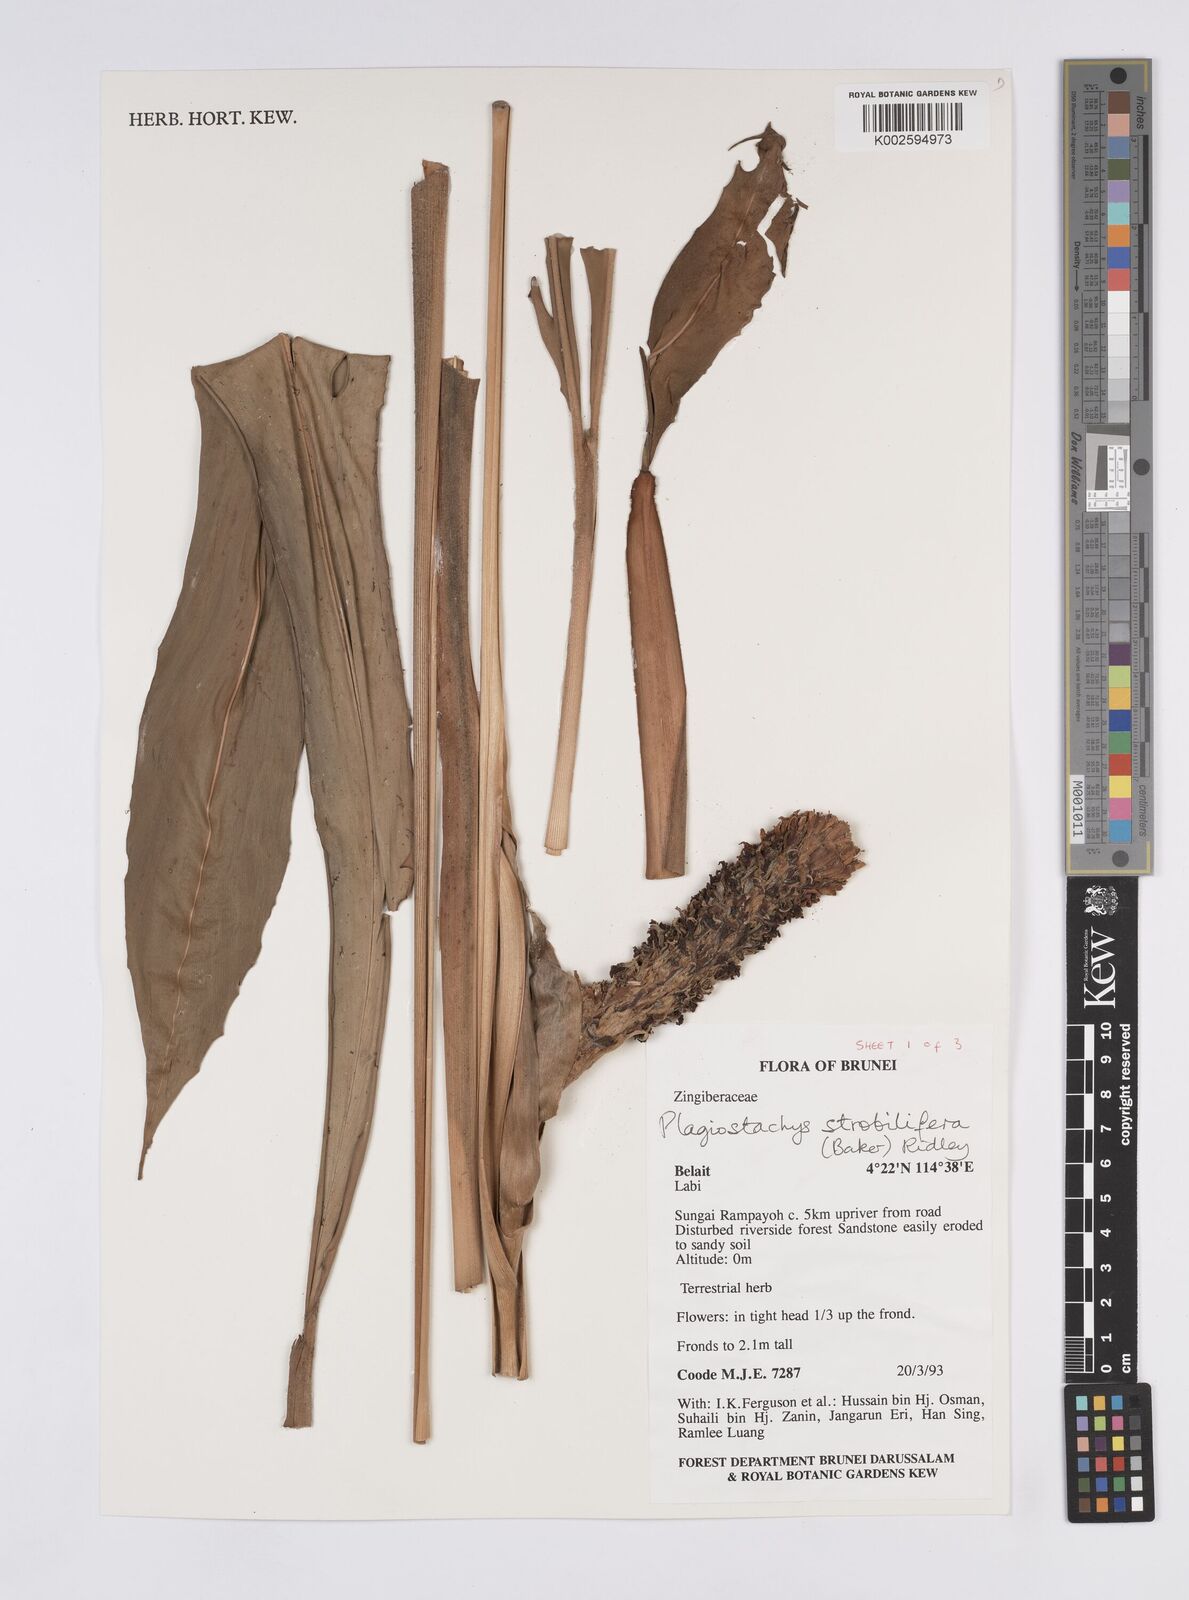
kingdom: Plantae
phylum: Tracheophyta
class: Liliopsida
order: Zingiberales
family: Zingiberaceae
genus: Plagiostachys
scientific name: Plagiostachys strobilifera
